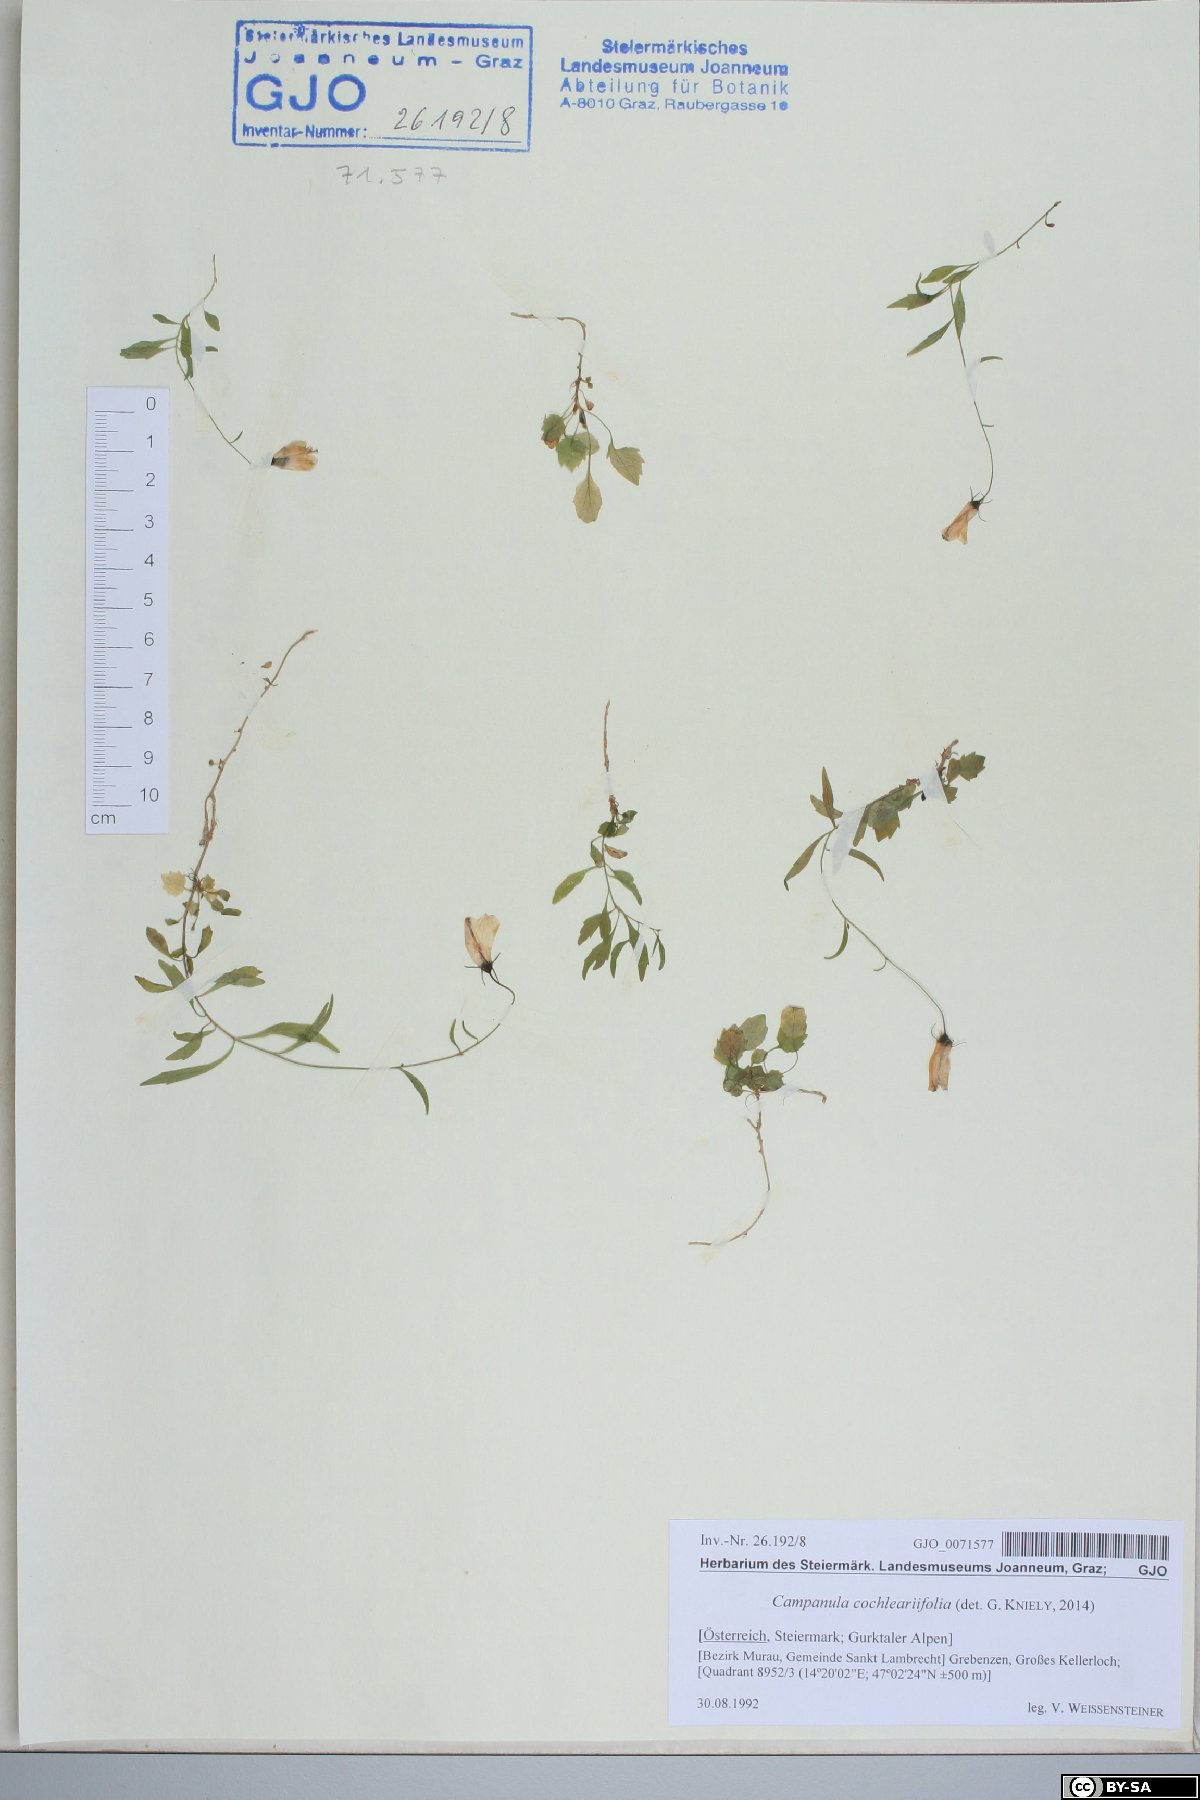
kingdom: Plantae
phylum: Tracheophyta
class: Magnoliopsida
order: Asterales
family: Campanulaceae
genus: Campanula
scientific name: Campanula cochleariifolia
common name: Fairies'-thimbles
